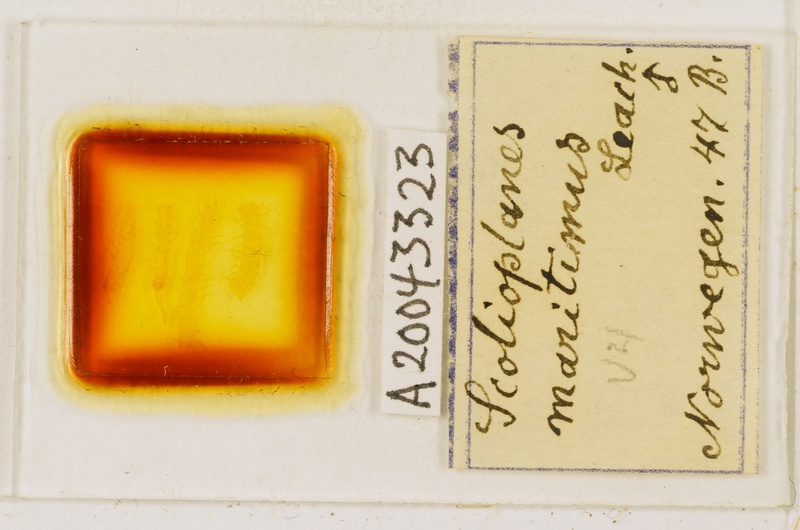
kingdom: Animalia
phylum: Arthropoda
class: Chilopoda
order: Geophilomorpha
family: Linotaeniidae
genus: Strigamia
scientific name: Strigamia maritima
